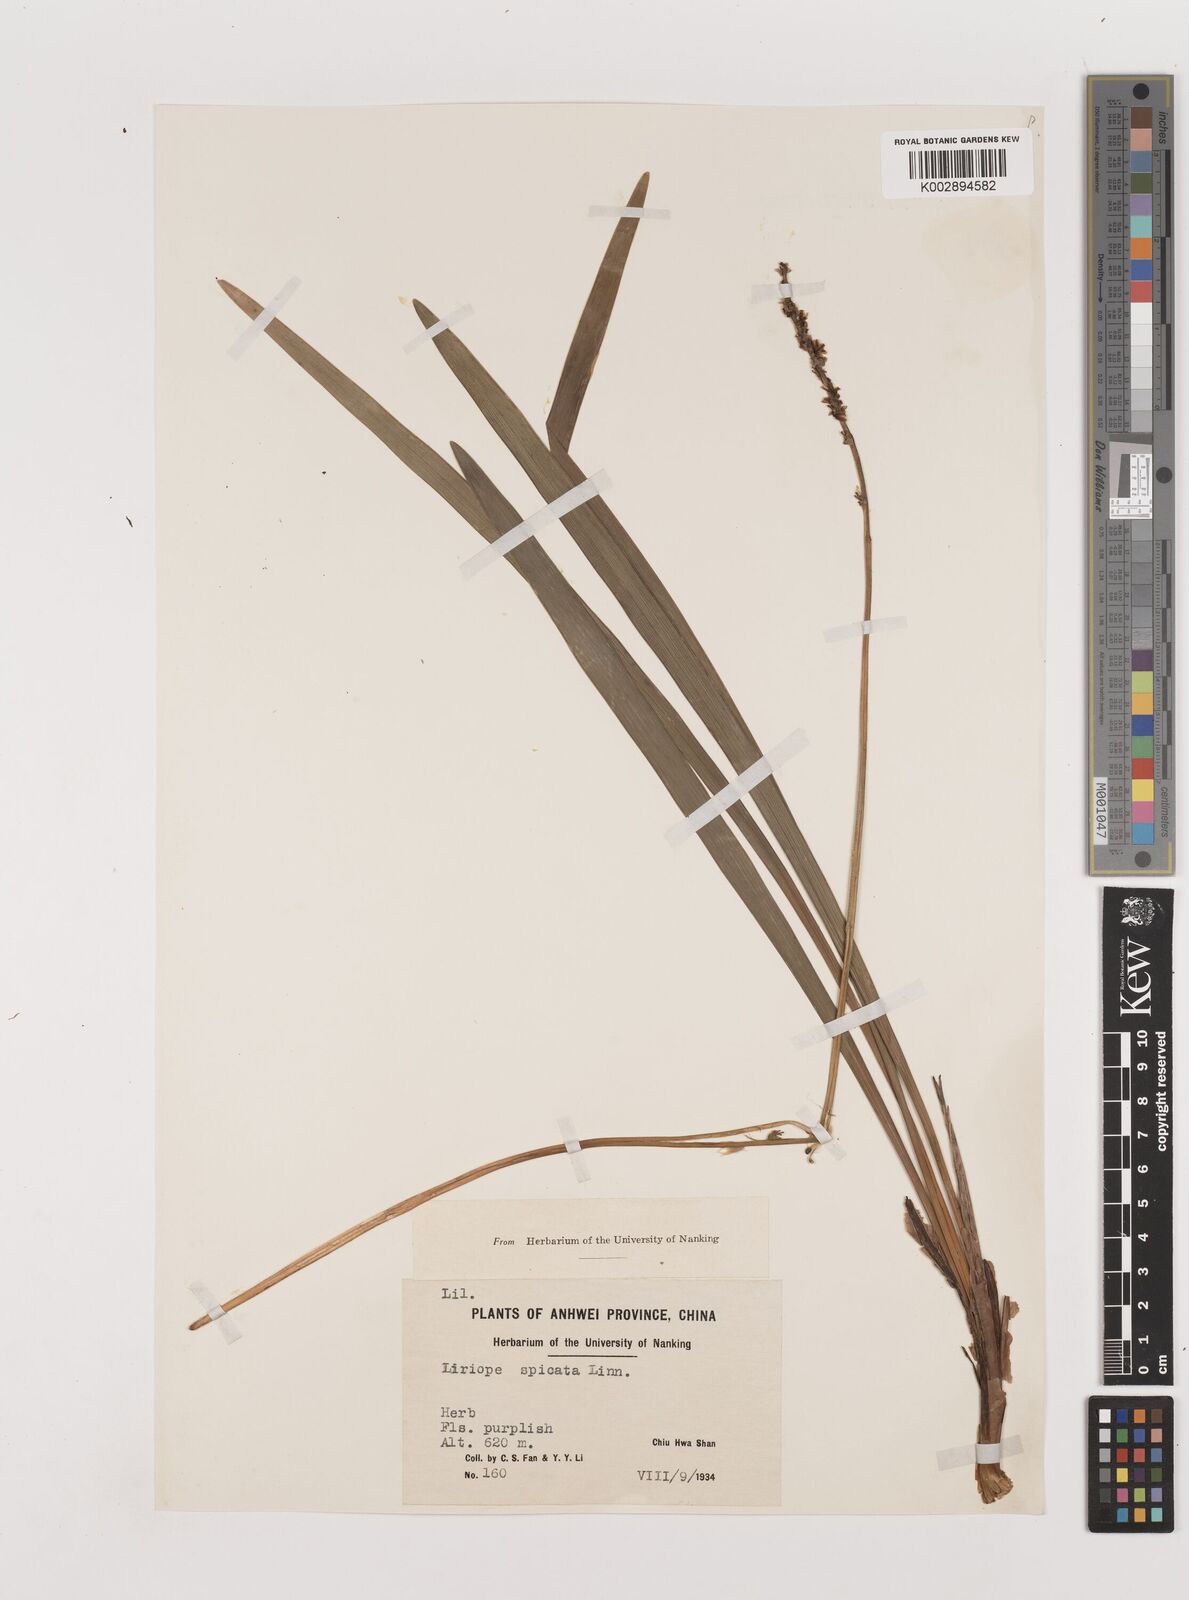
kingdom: Plantae
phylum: Tracheophyta
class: Liliopsida
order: Asparagales
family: Asparagaceae
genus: Liriope
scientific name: Liriope muscari
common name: Big blue lilyturf
